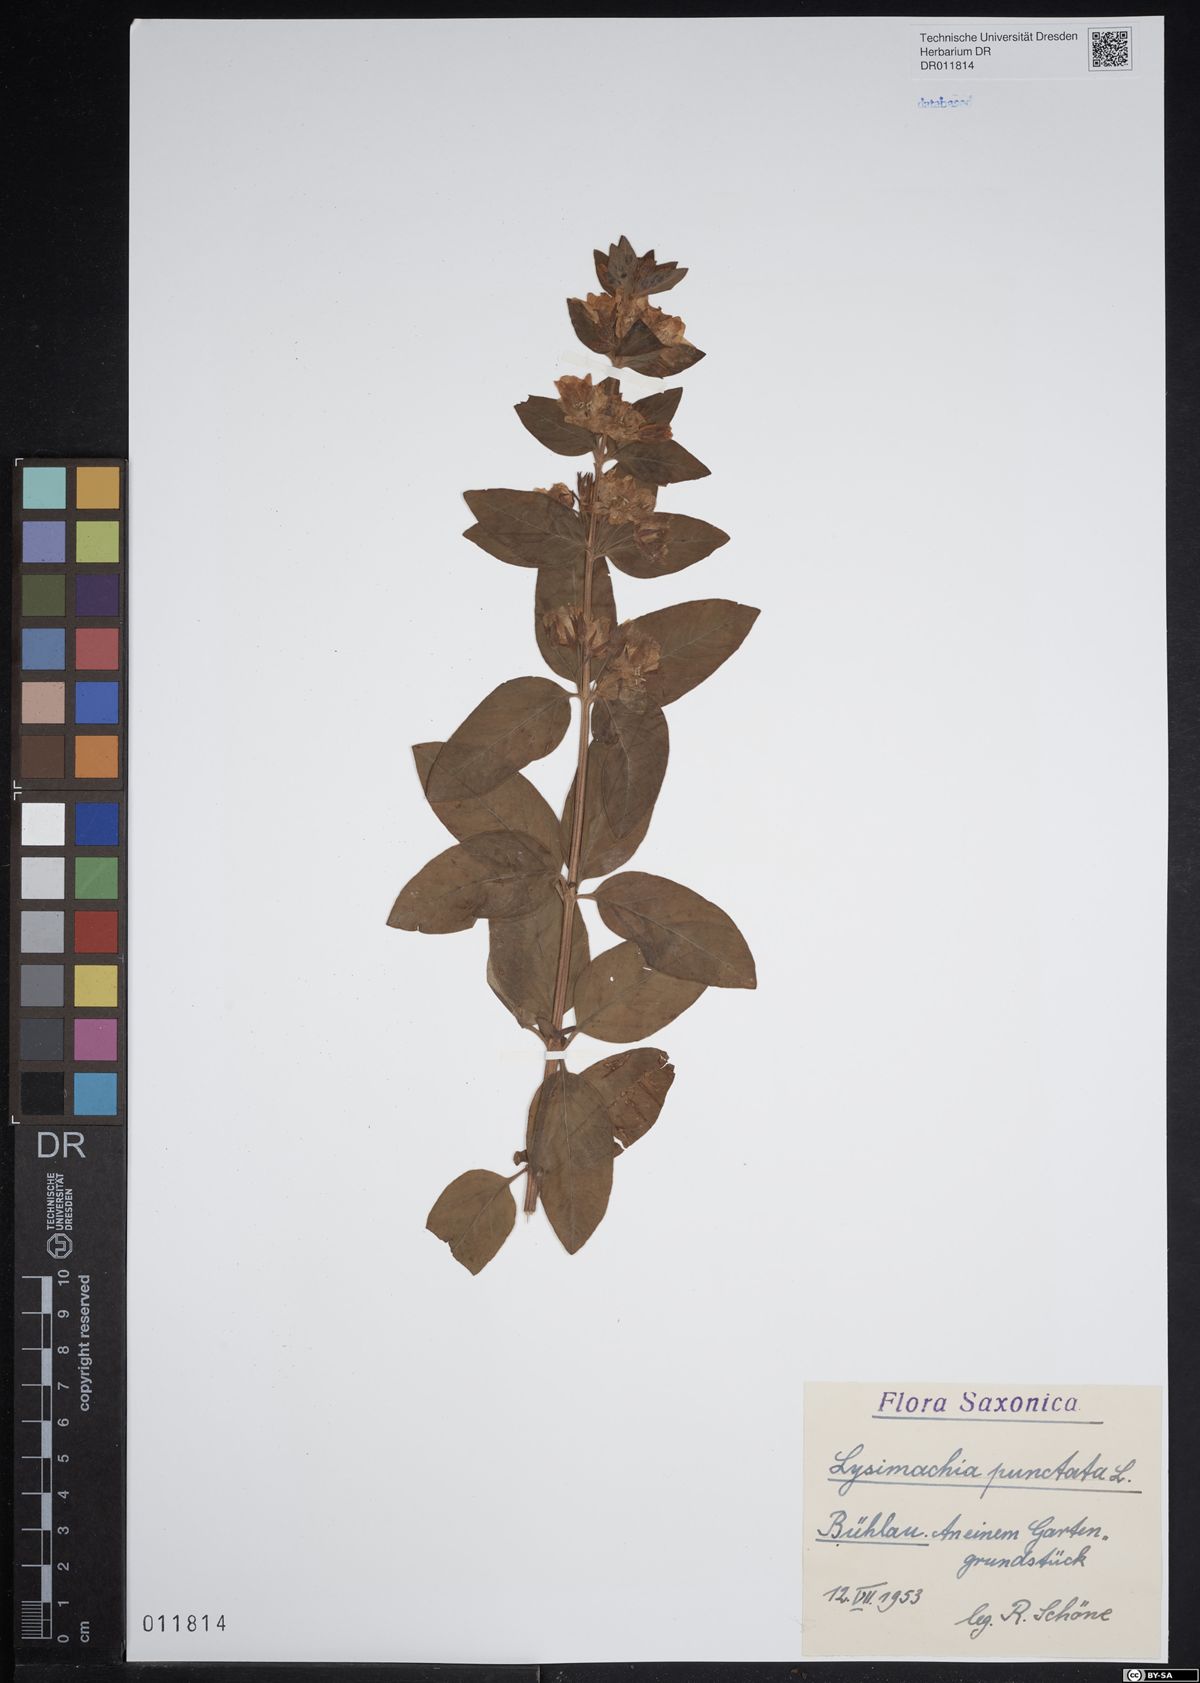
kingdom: Plantae
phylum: Tracheophyta
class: Magnoliopsida
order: Ericales
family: Primulaceae
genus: Lysimachia
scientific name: Lysimachia punctata
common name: Dotted loosestrife
